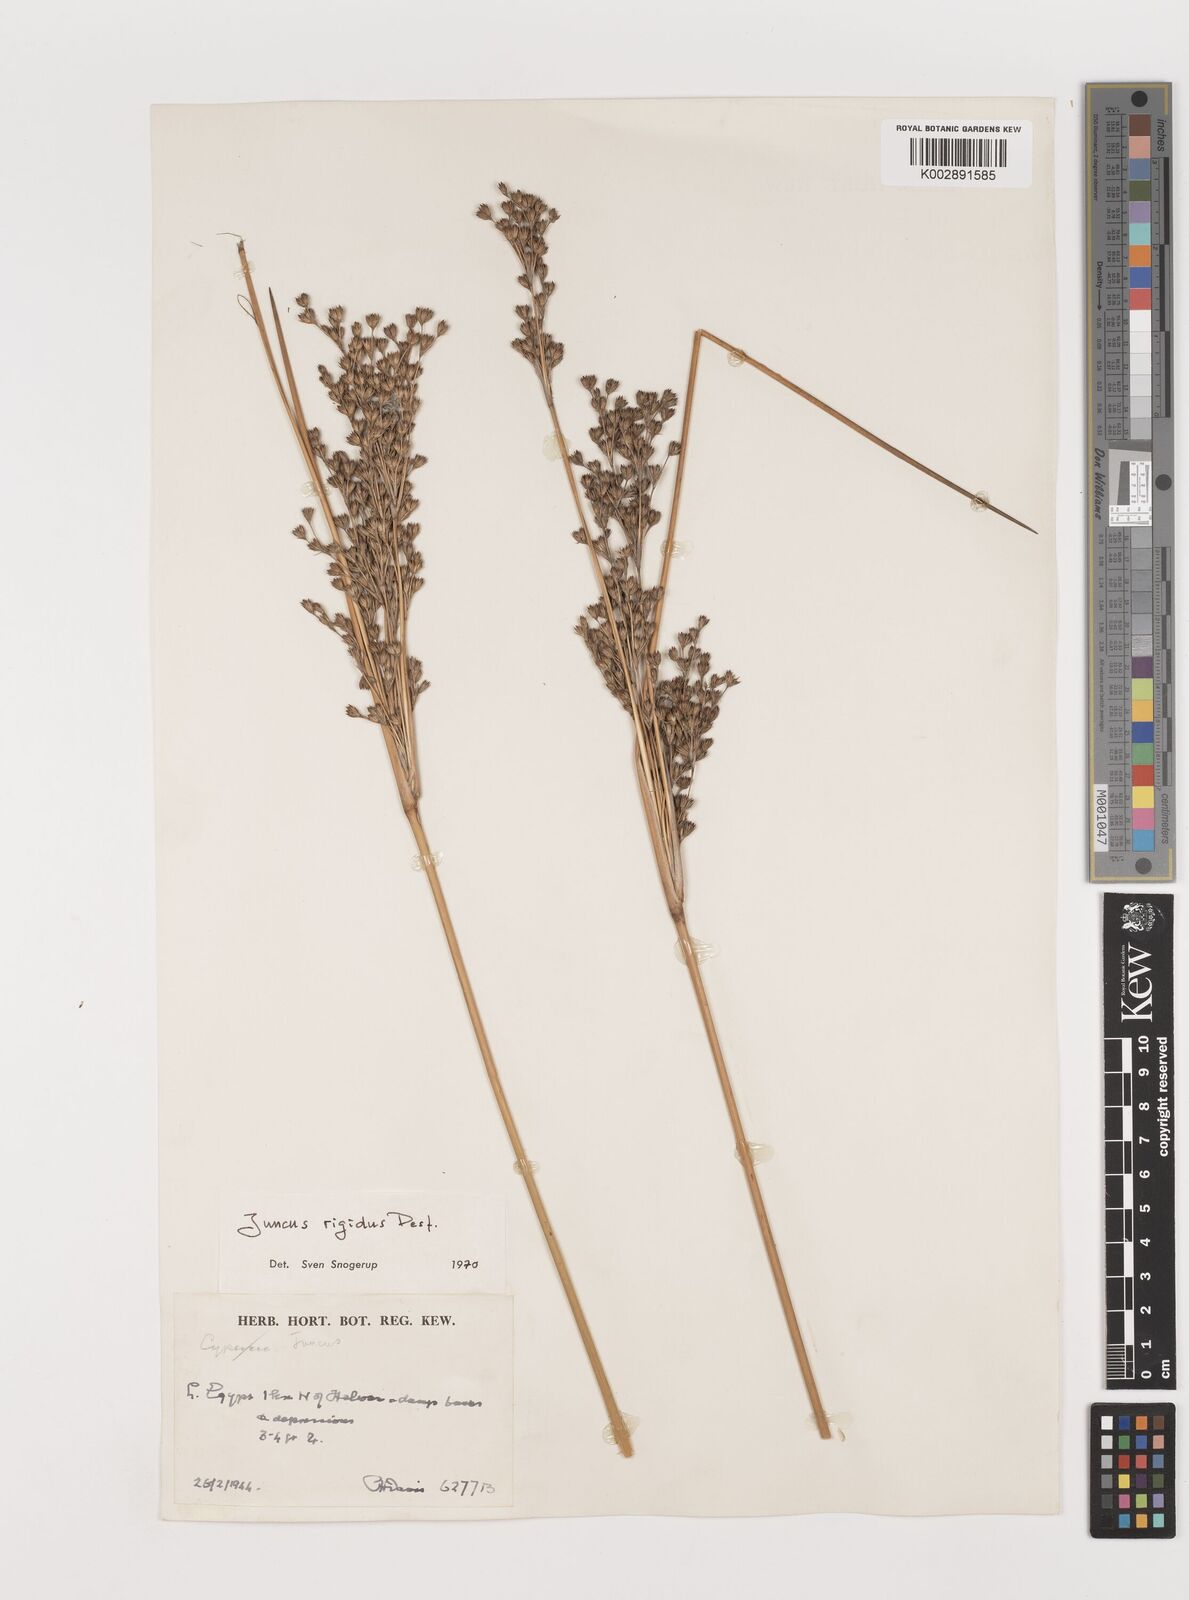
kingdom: Plantae
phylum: Tracheophyta
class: Liliopsida
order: Poales
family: Juncaceae
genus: Juncus
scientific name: Juncus rigidus
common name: Hard sea rush
